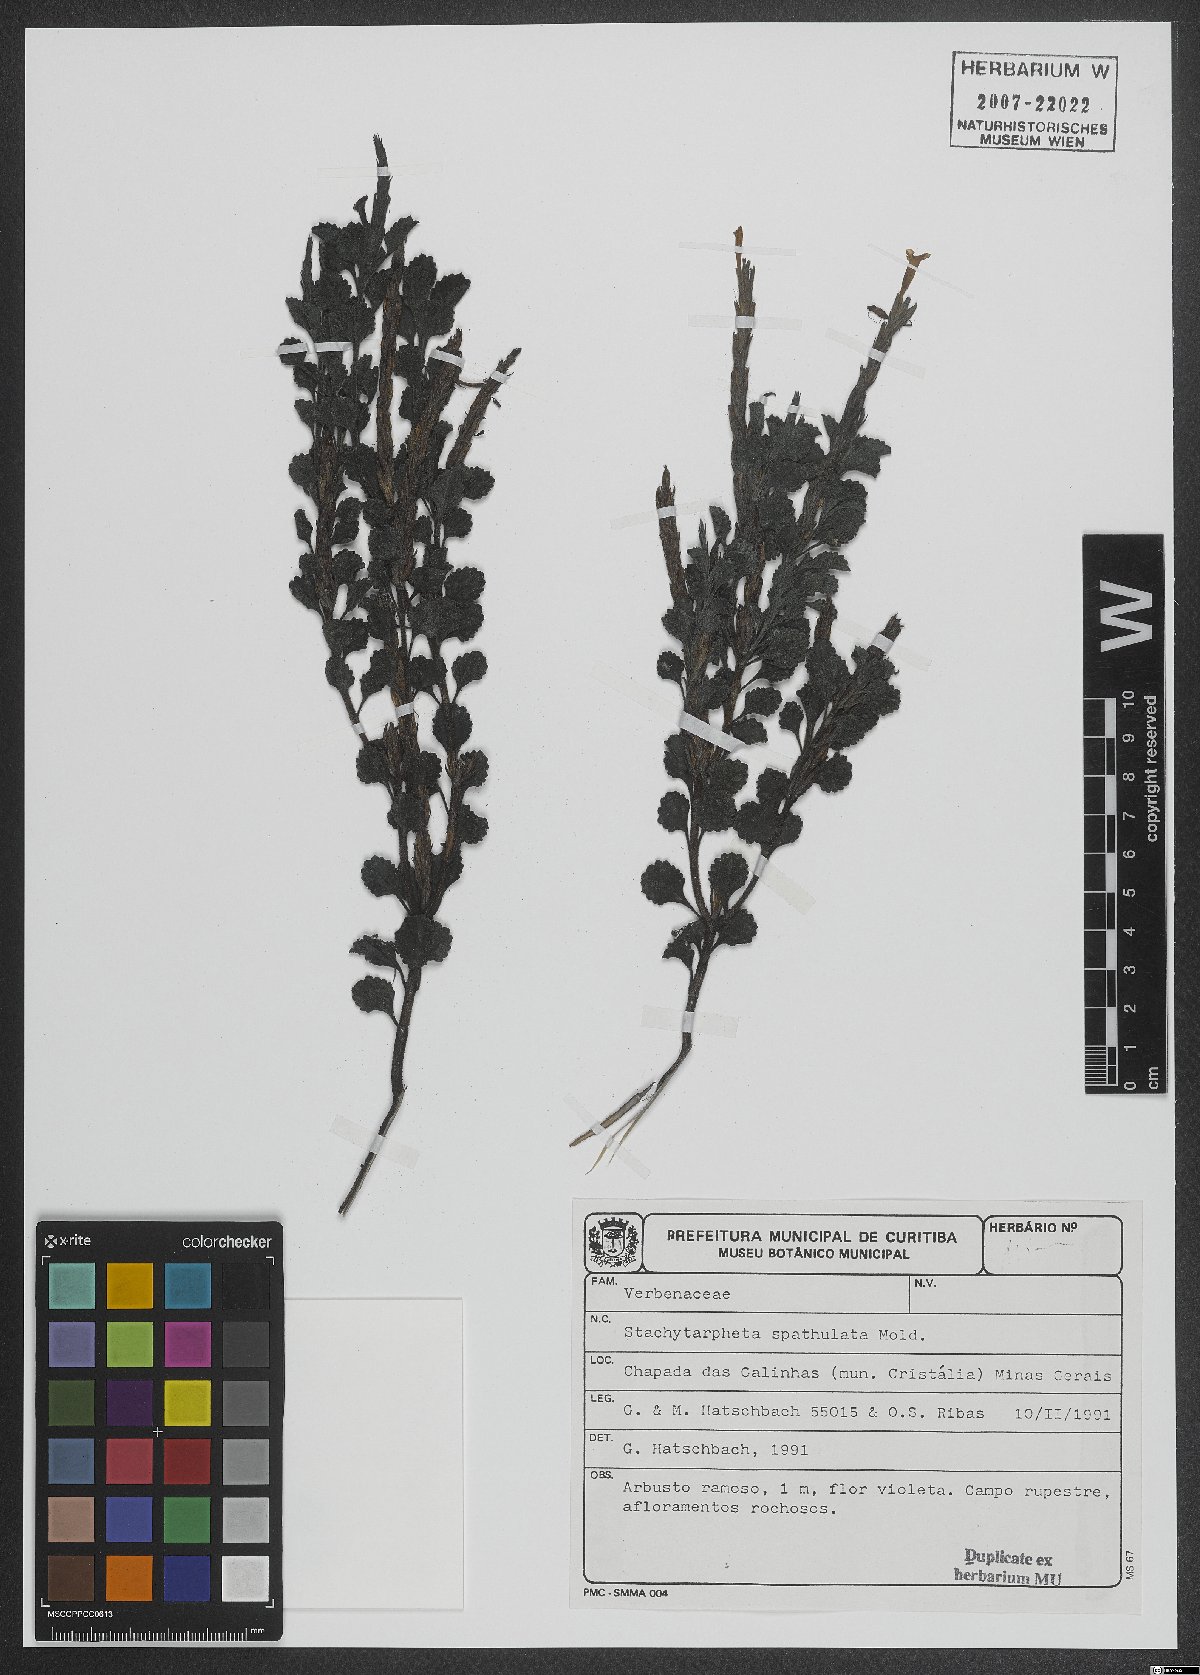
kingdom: Plantae
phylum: Tracheophyta
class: Magnoliopsida
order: Lamiales
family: Verbenaceae
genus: Stachytarpheta
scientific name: Stachytarpheta spathulata
